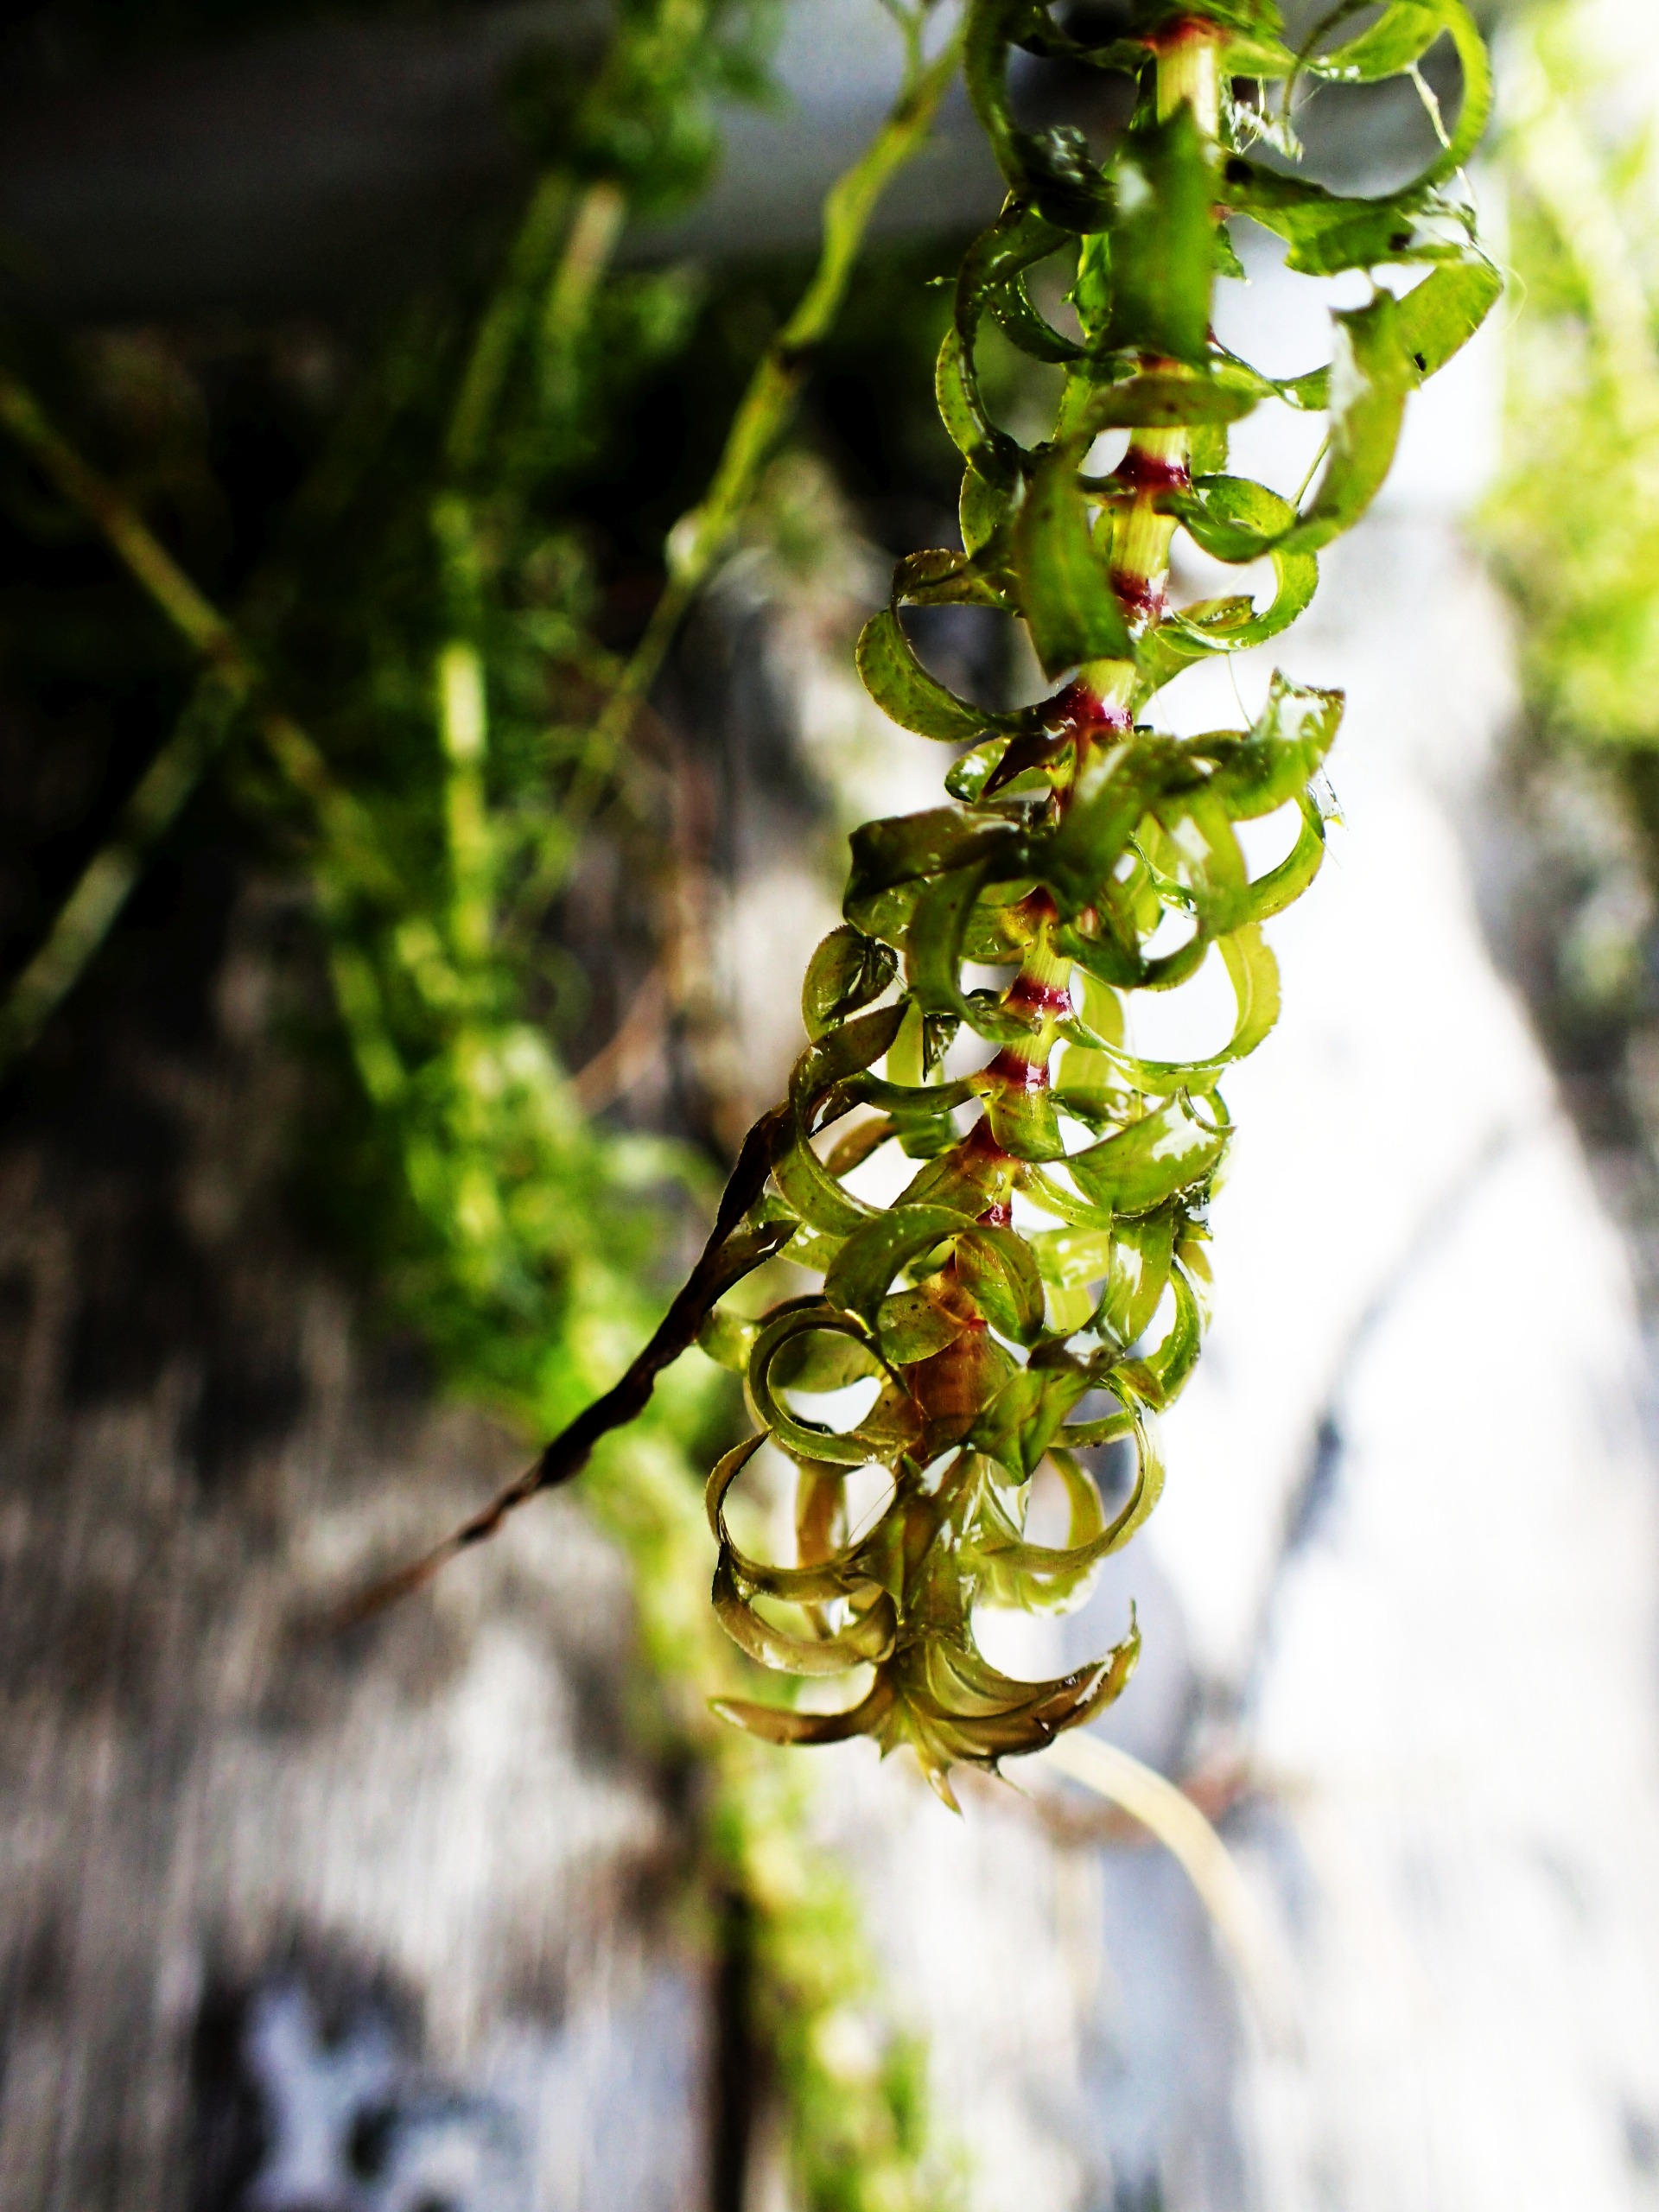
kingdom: Plantae
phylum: Tracheophyta
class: Liliopsida
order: Alismatales
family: Hydrocharitaceae
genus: Elodea
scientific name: Elodea nuttallii
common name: Smalbladet vandpest
